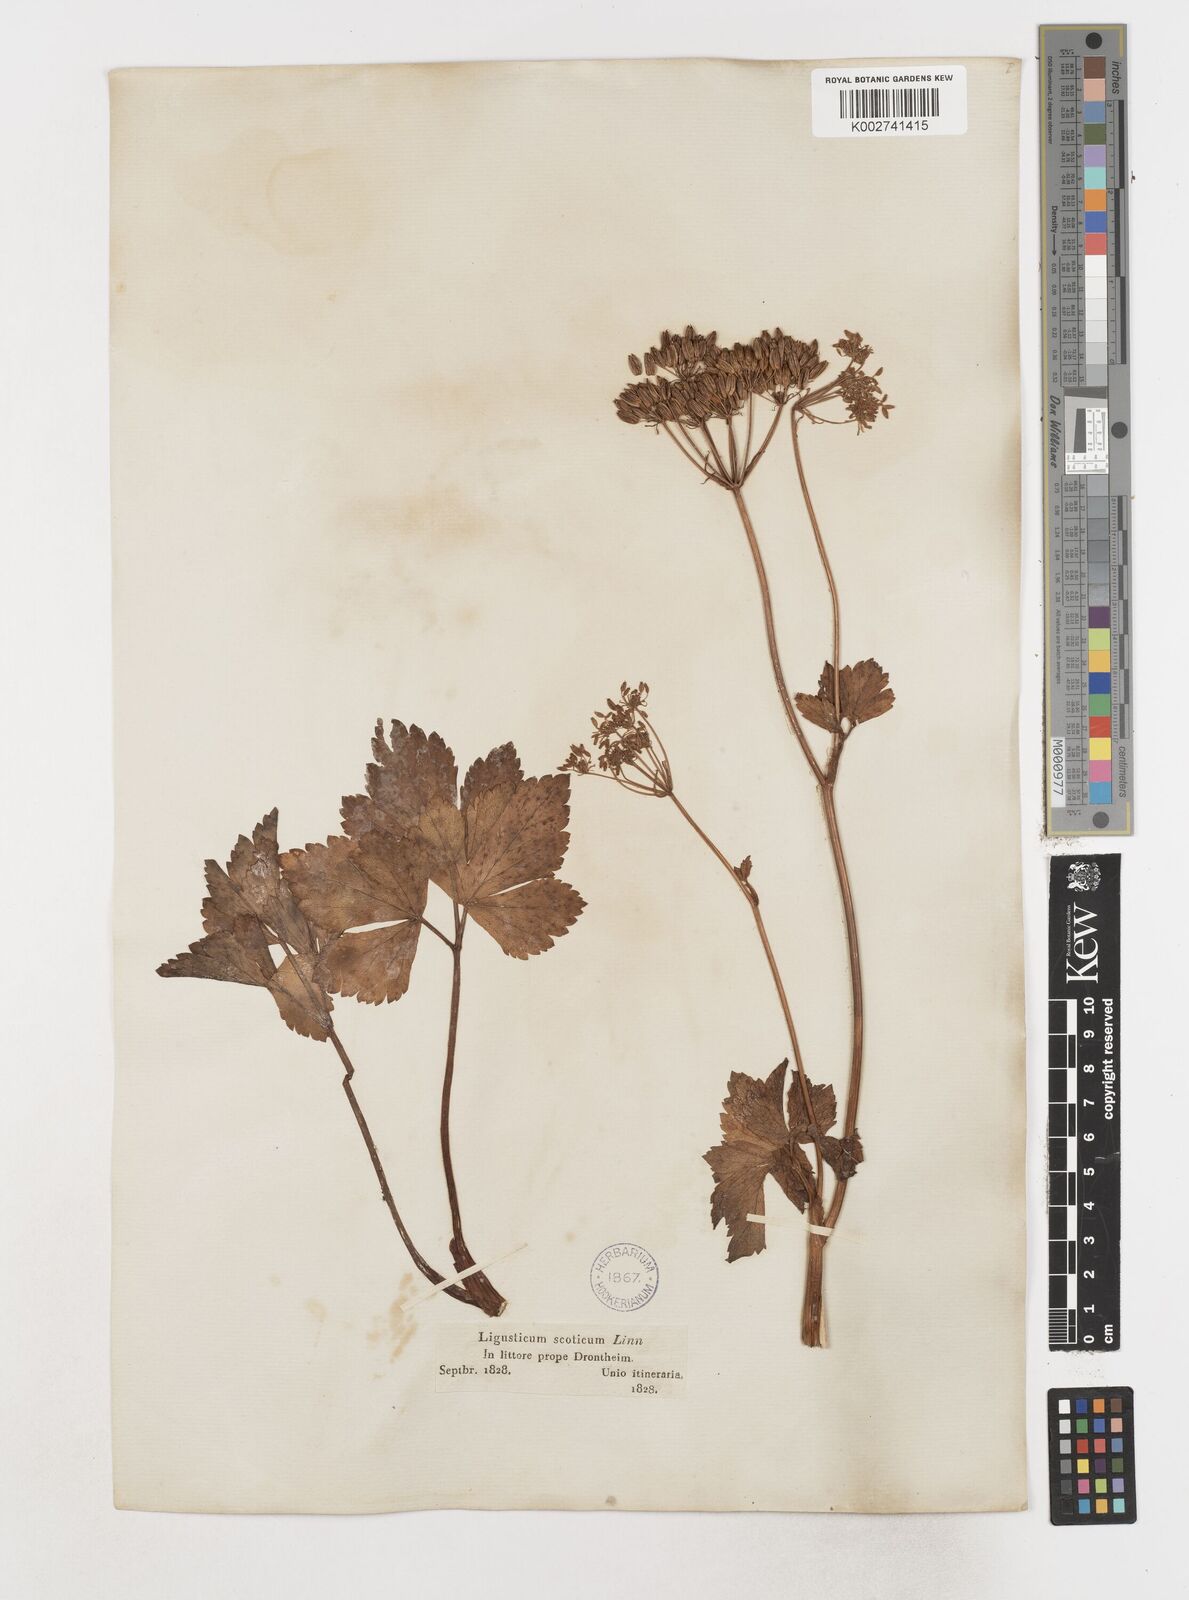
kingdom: Plantae
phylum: Tracheophyta
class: Magnoliopsida
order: Apiales
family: Apiaceae
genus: Ligusticum
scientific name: Ligusticum scothicum
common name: Beach lovage
